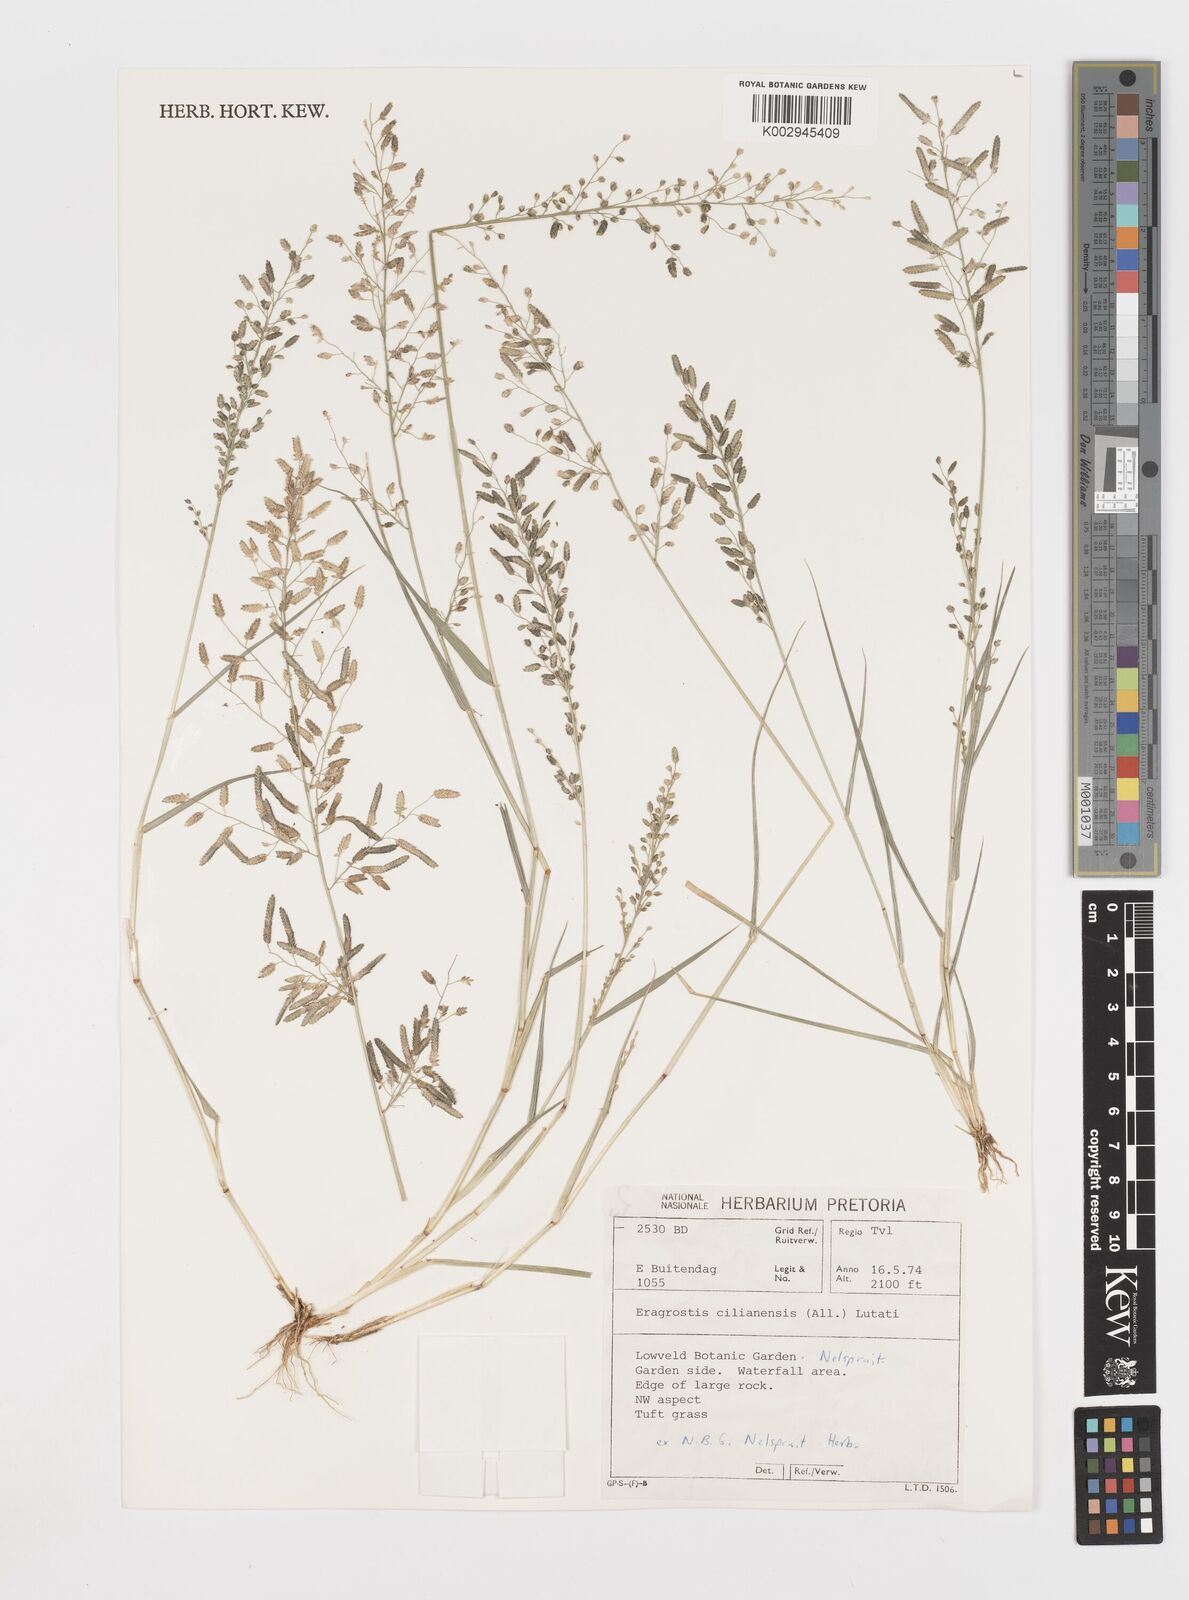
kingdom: Plantae
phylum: Tracheophyta
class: Liliopsida
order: Poales
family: Poaceae
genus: Eragrostis
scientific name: Eragrostis cilianensis
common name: Stinkgrass
